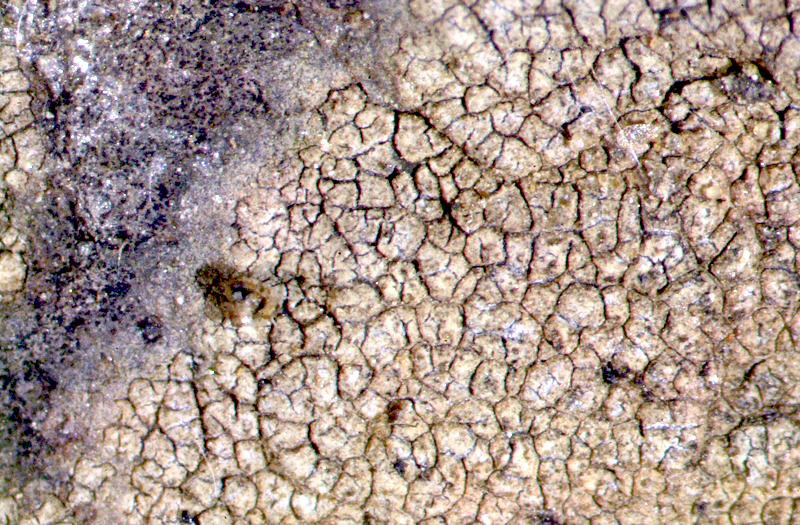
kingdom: Fungi
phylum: Ascomycota
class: Lecanoromycetes
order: Caliciales
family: Caliciaceae
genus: Buellia
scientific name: Buellia
